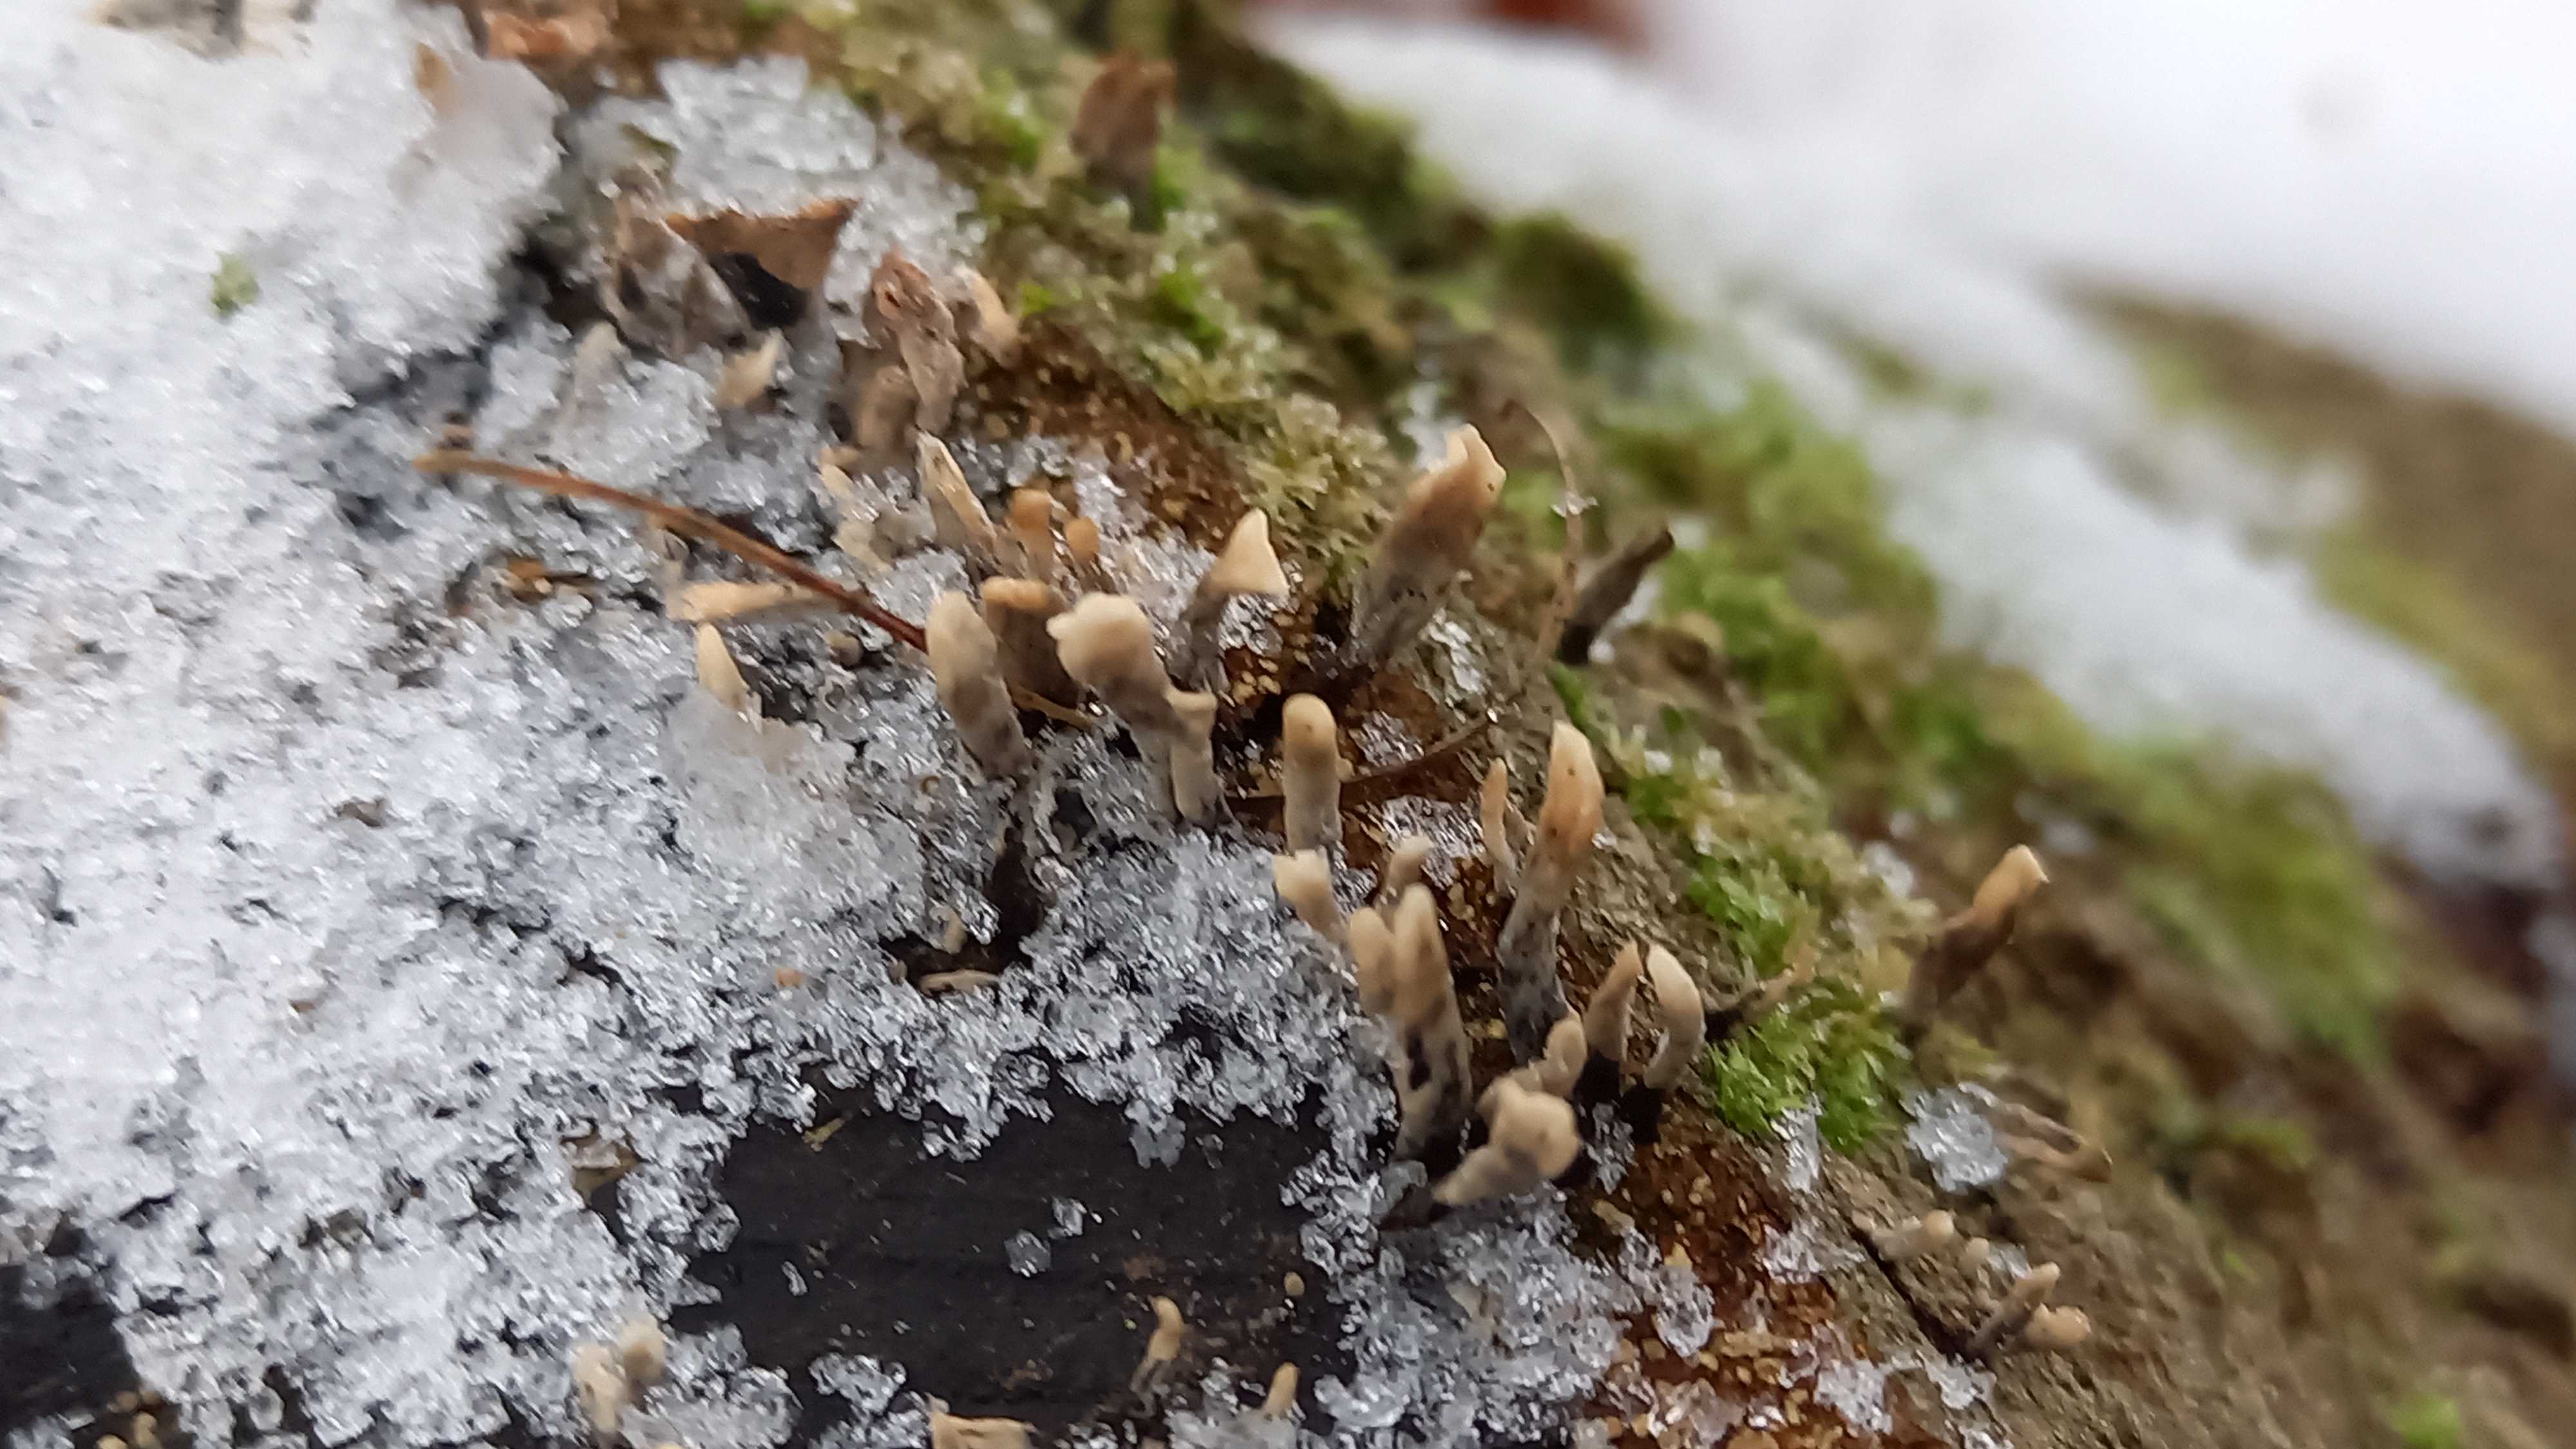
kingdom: Fungi
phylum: Ascomycota
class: Sordariomycetes
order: Xylariales
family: Xylariaceae
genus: Xylaria
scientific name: Xylaria hypoxylon
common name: grenet stødsvamp
